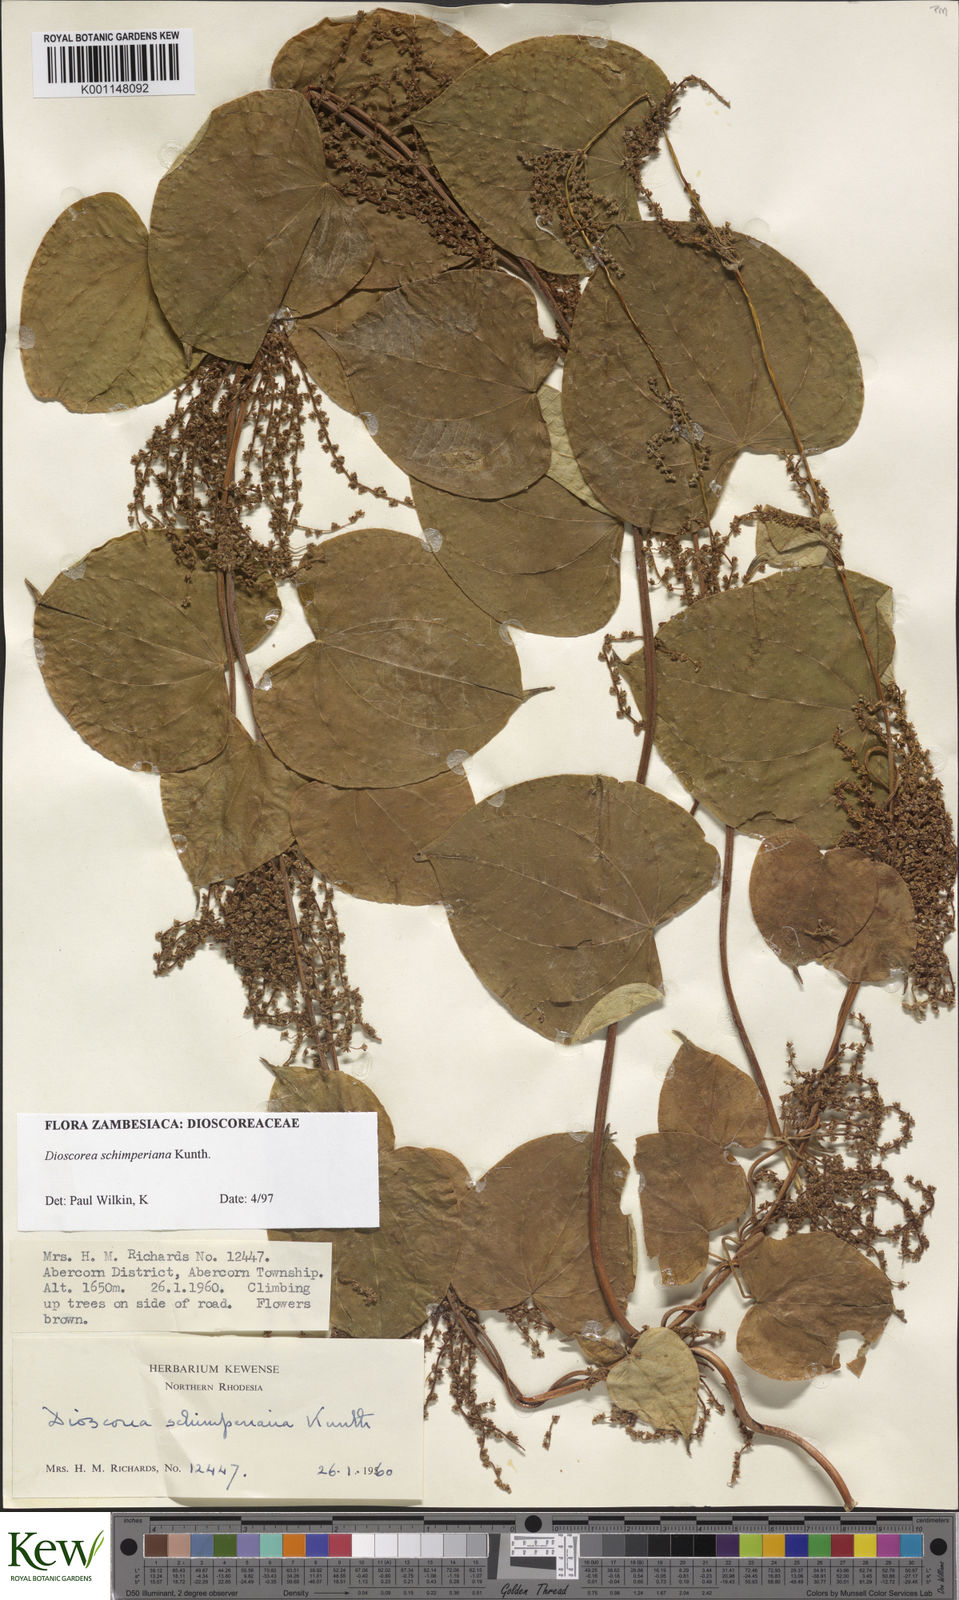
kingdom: Plantae
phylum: Tracheophyta
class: Liliopsida
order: Dioscoreales
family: Dioscoreaceae
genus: Dioscorea
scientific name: Dioscorea schimperiana
